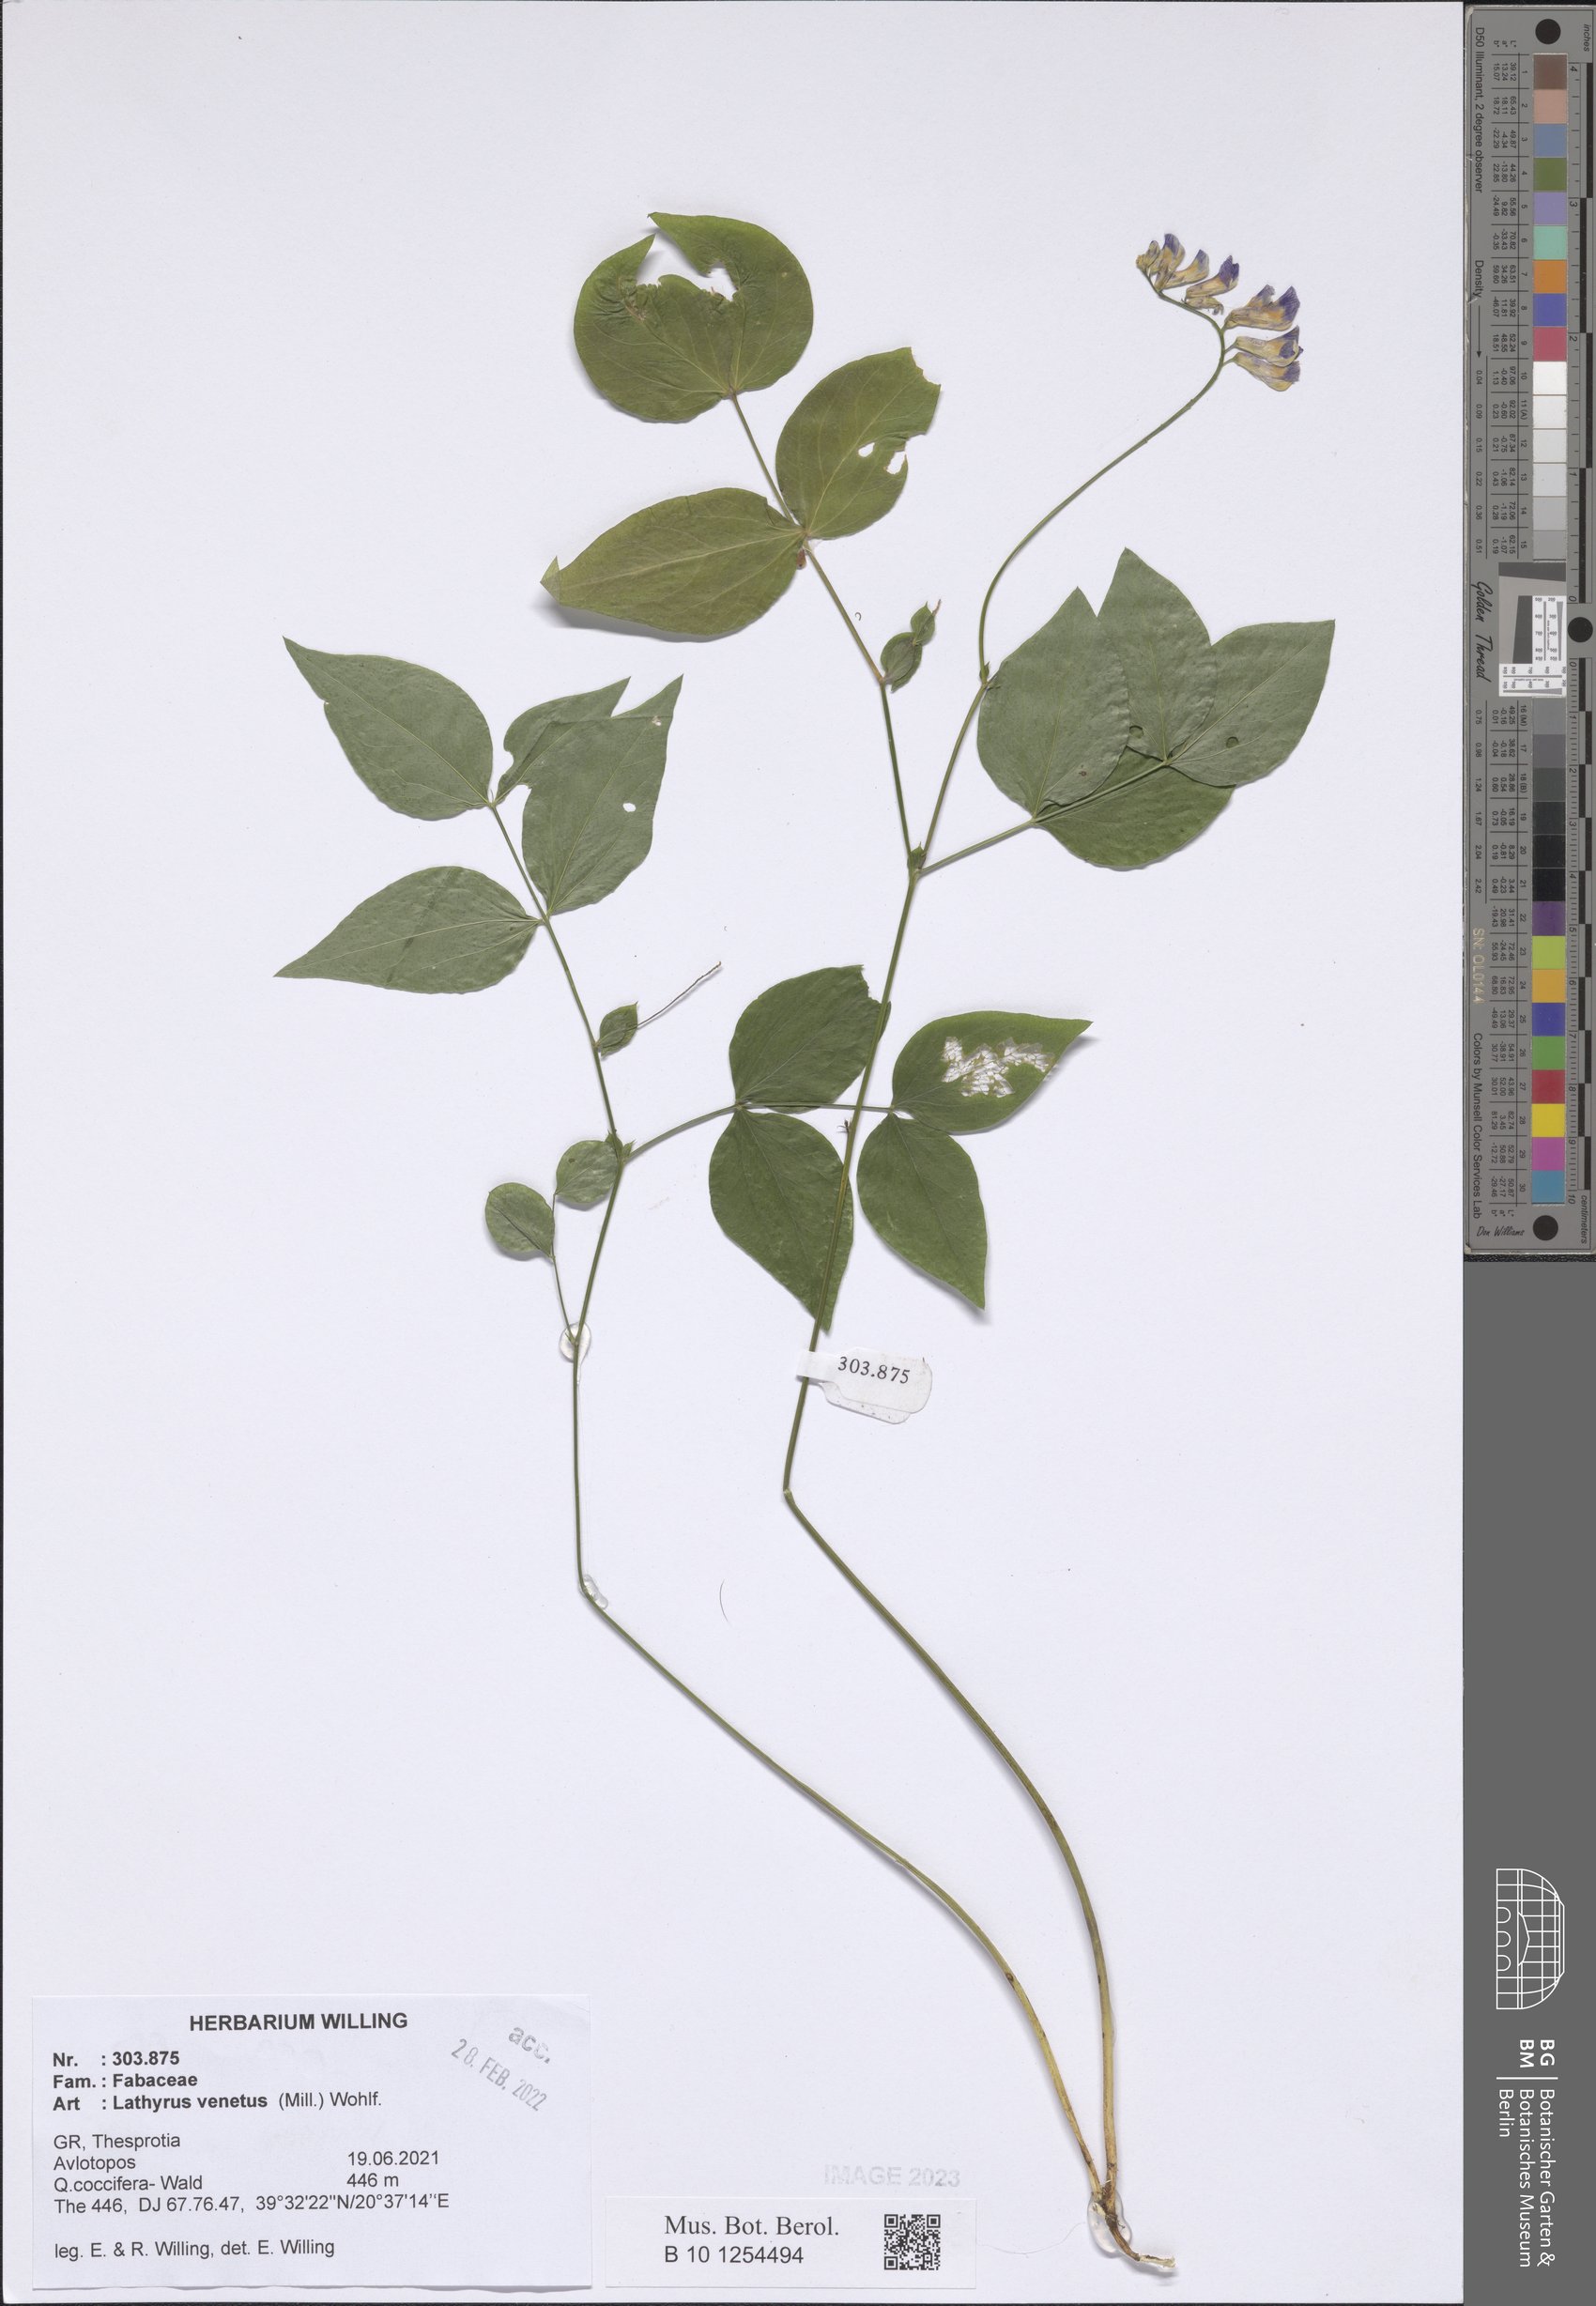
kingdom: Plantae
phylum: Tracheophyta
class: Magnoliopsida
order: Fabales
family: Fabaceae
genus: Lathyrus
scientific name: Lathyrus venetus
